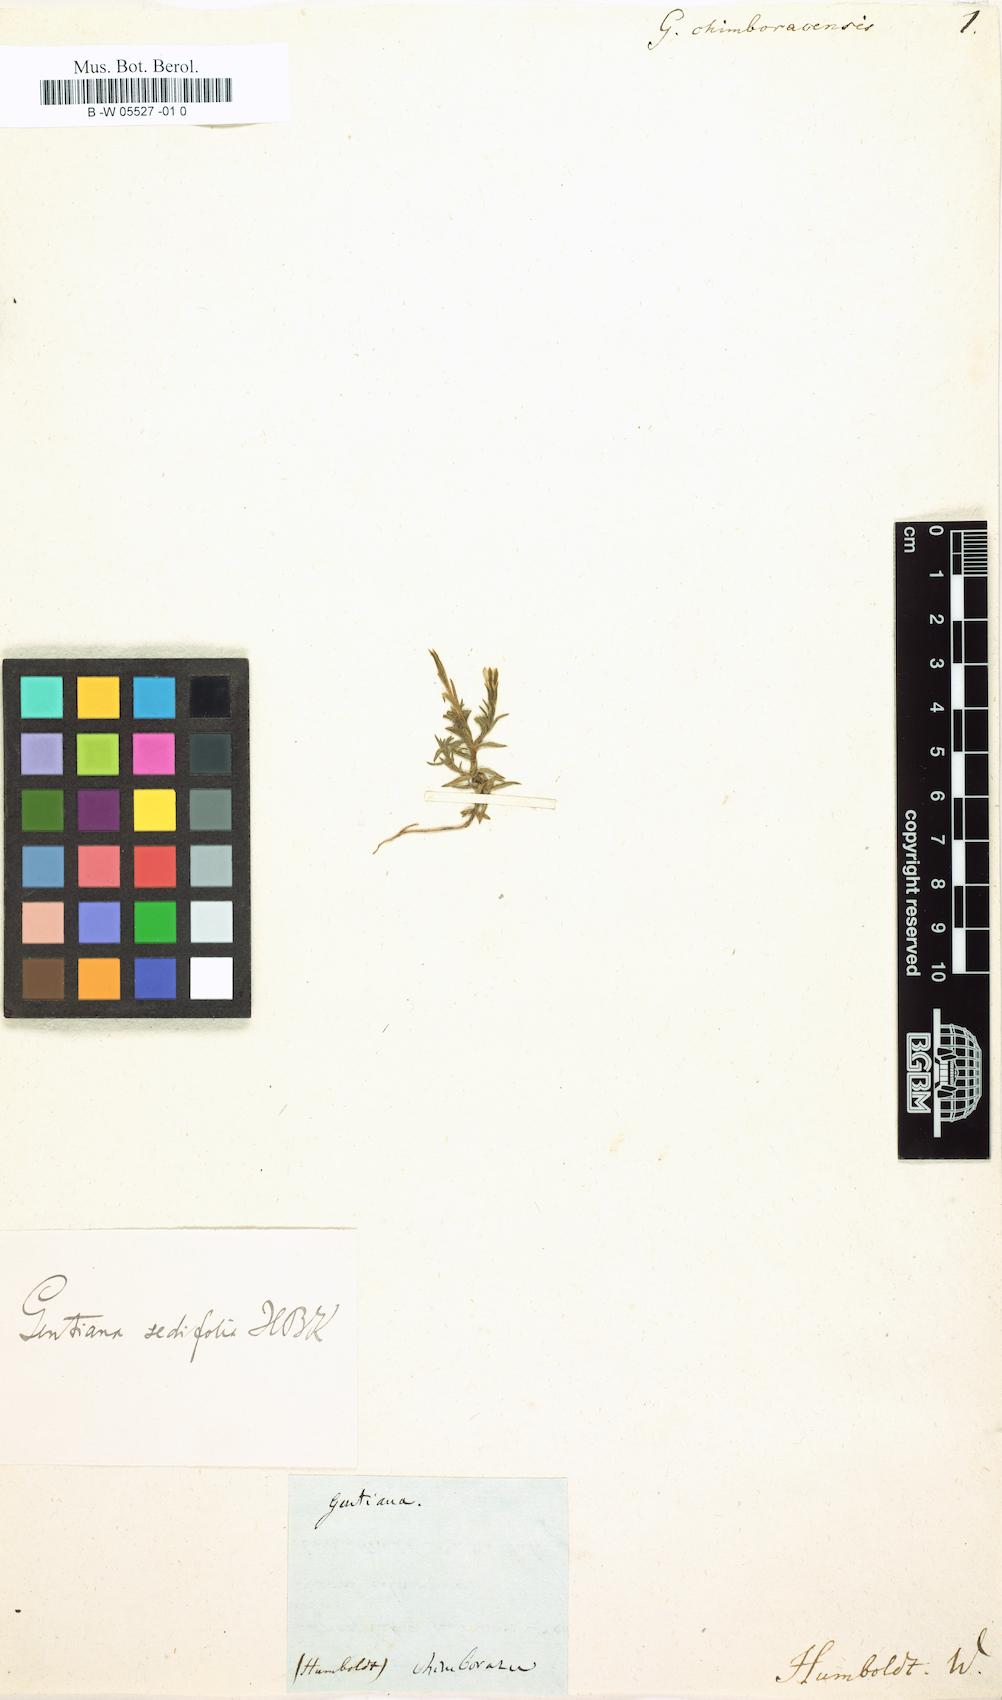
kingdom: Plantae
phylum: Tracheophyta
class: Magnoliopsida
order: Gentianales
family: Gentianaceae
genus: Gentiana
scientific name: Gentiana sedifolia
